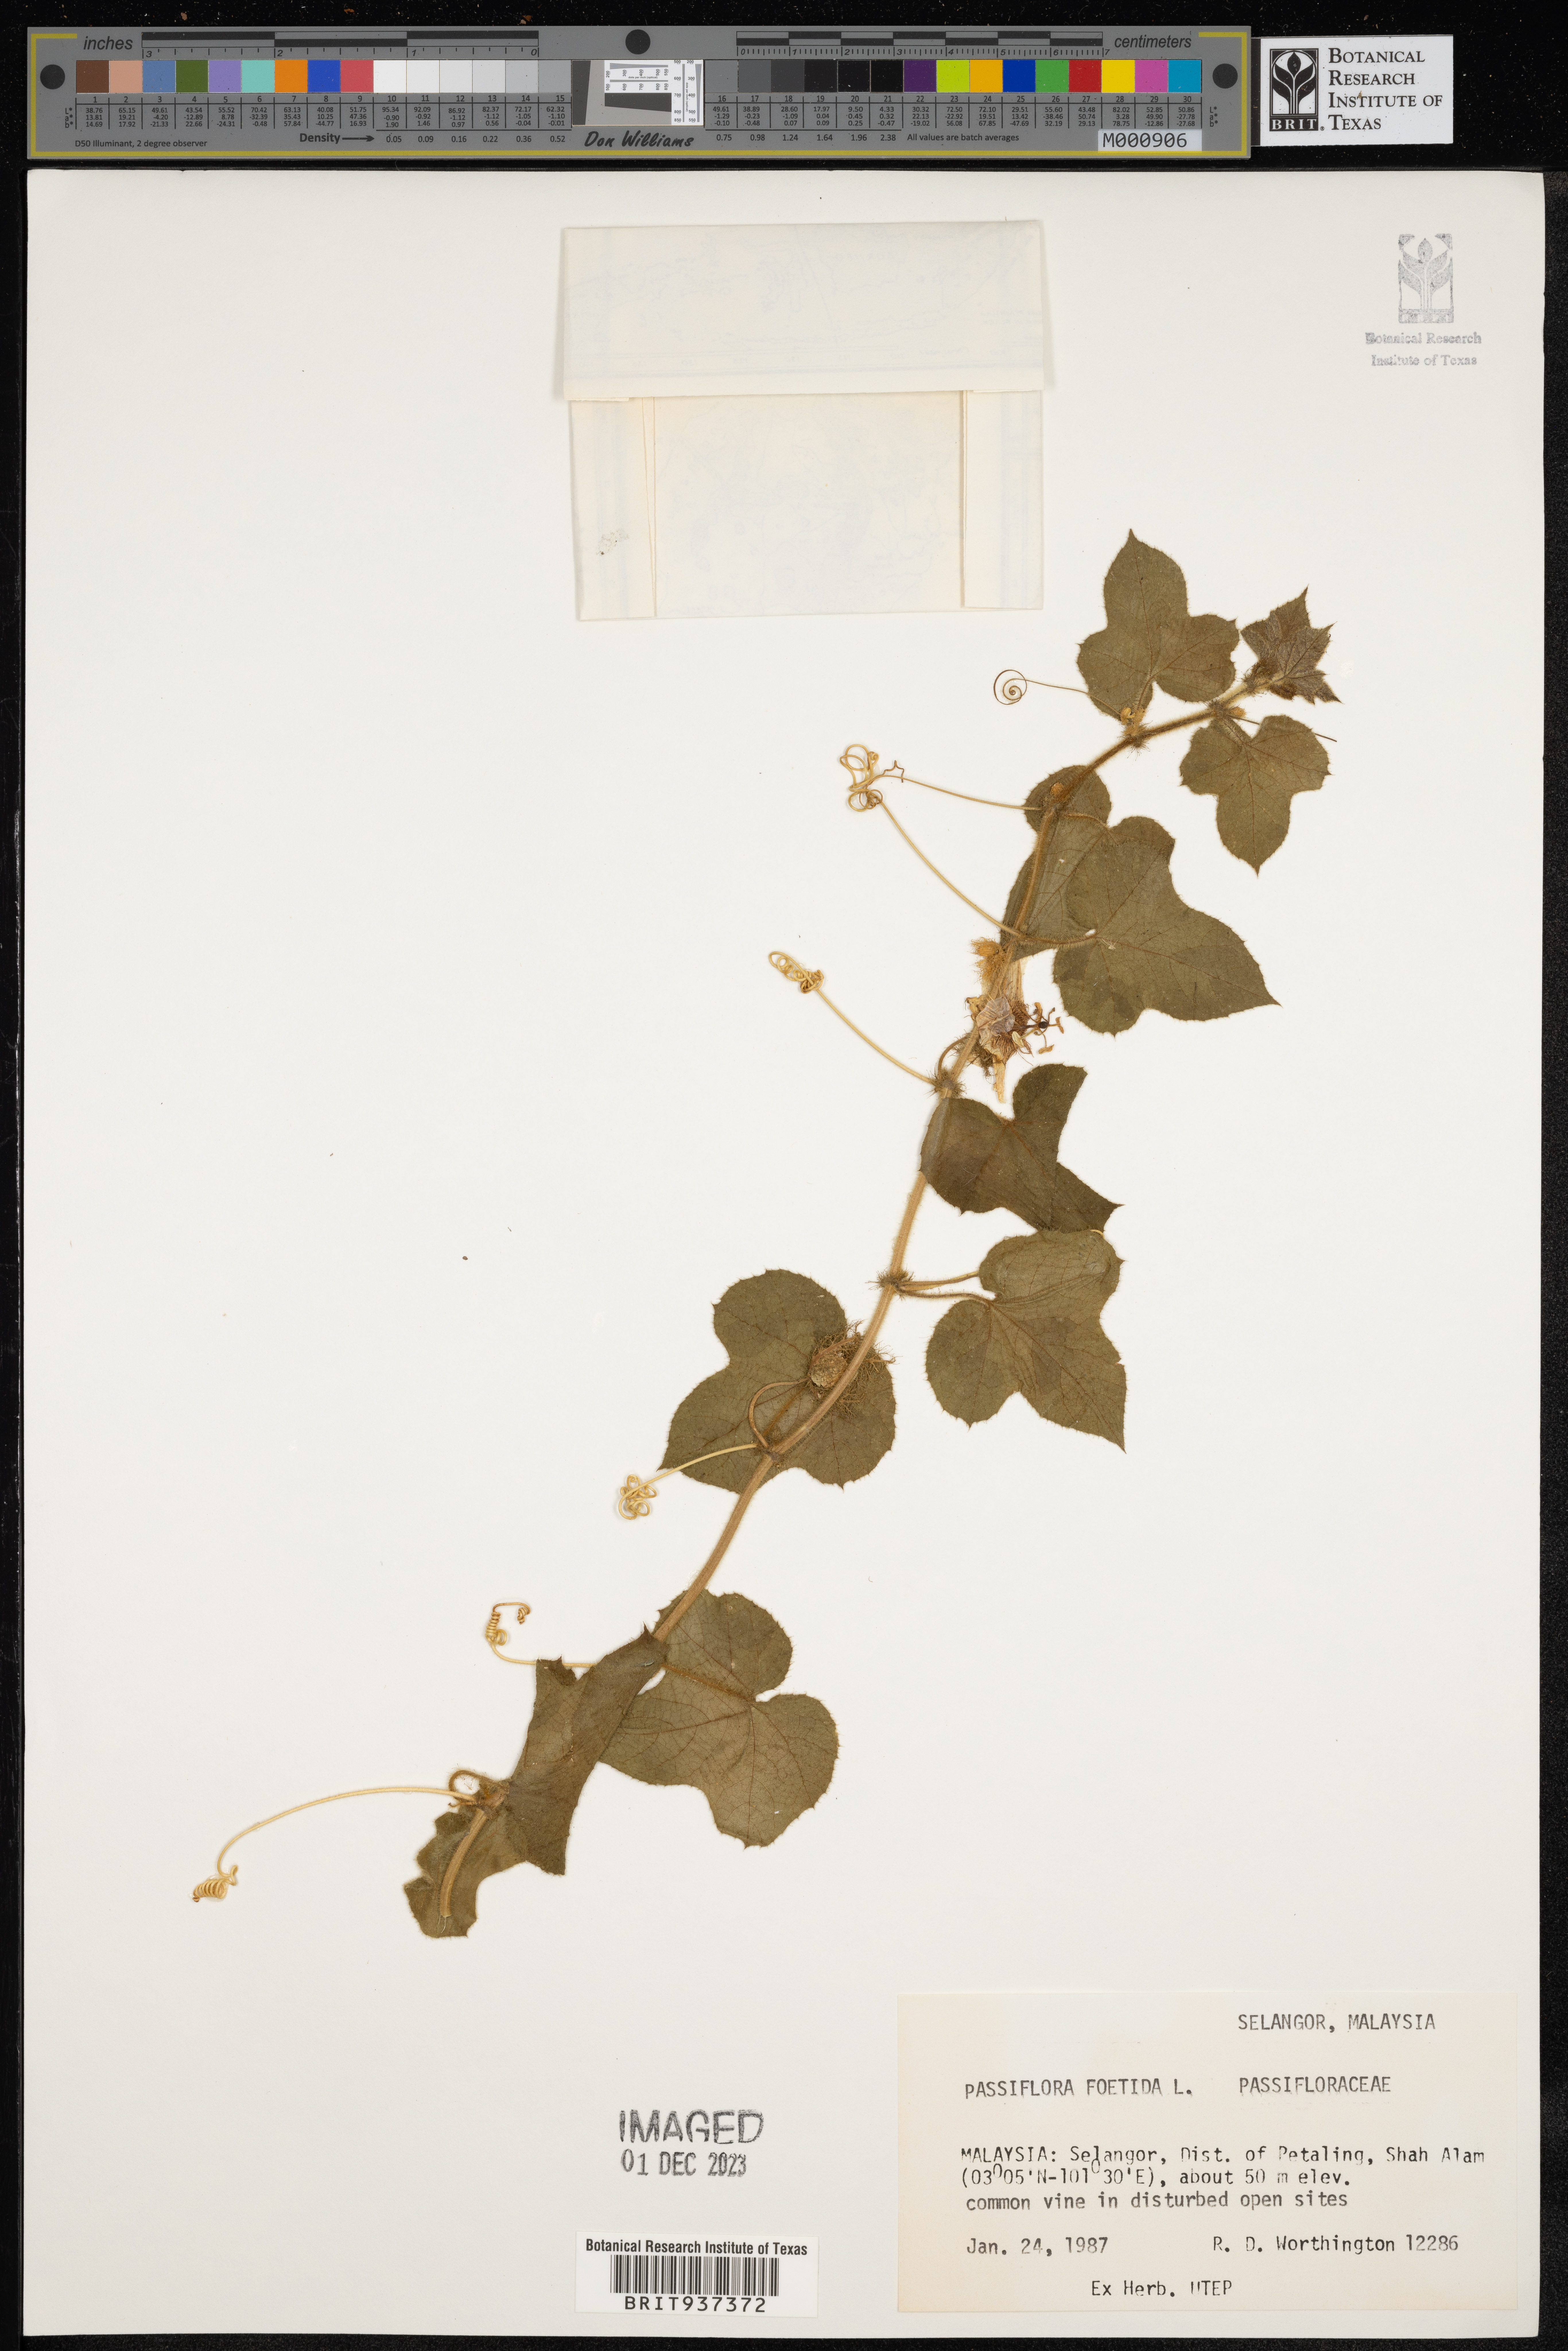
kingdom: Plantae
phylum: Tracheophyta
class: Magnoliopsida
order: Malpighiales
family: Passifloraceae
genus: Passiflora
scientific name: Passiflora foetida
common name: Fetid passionflower
